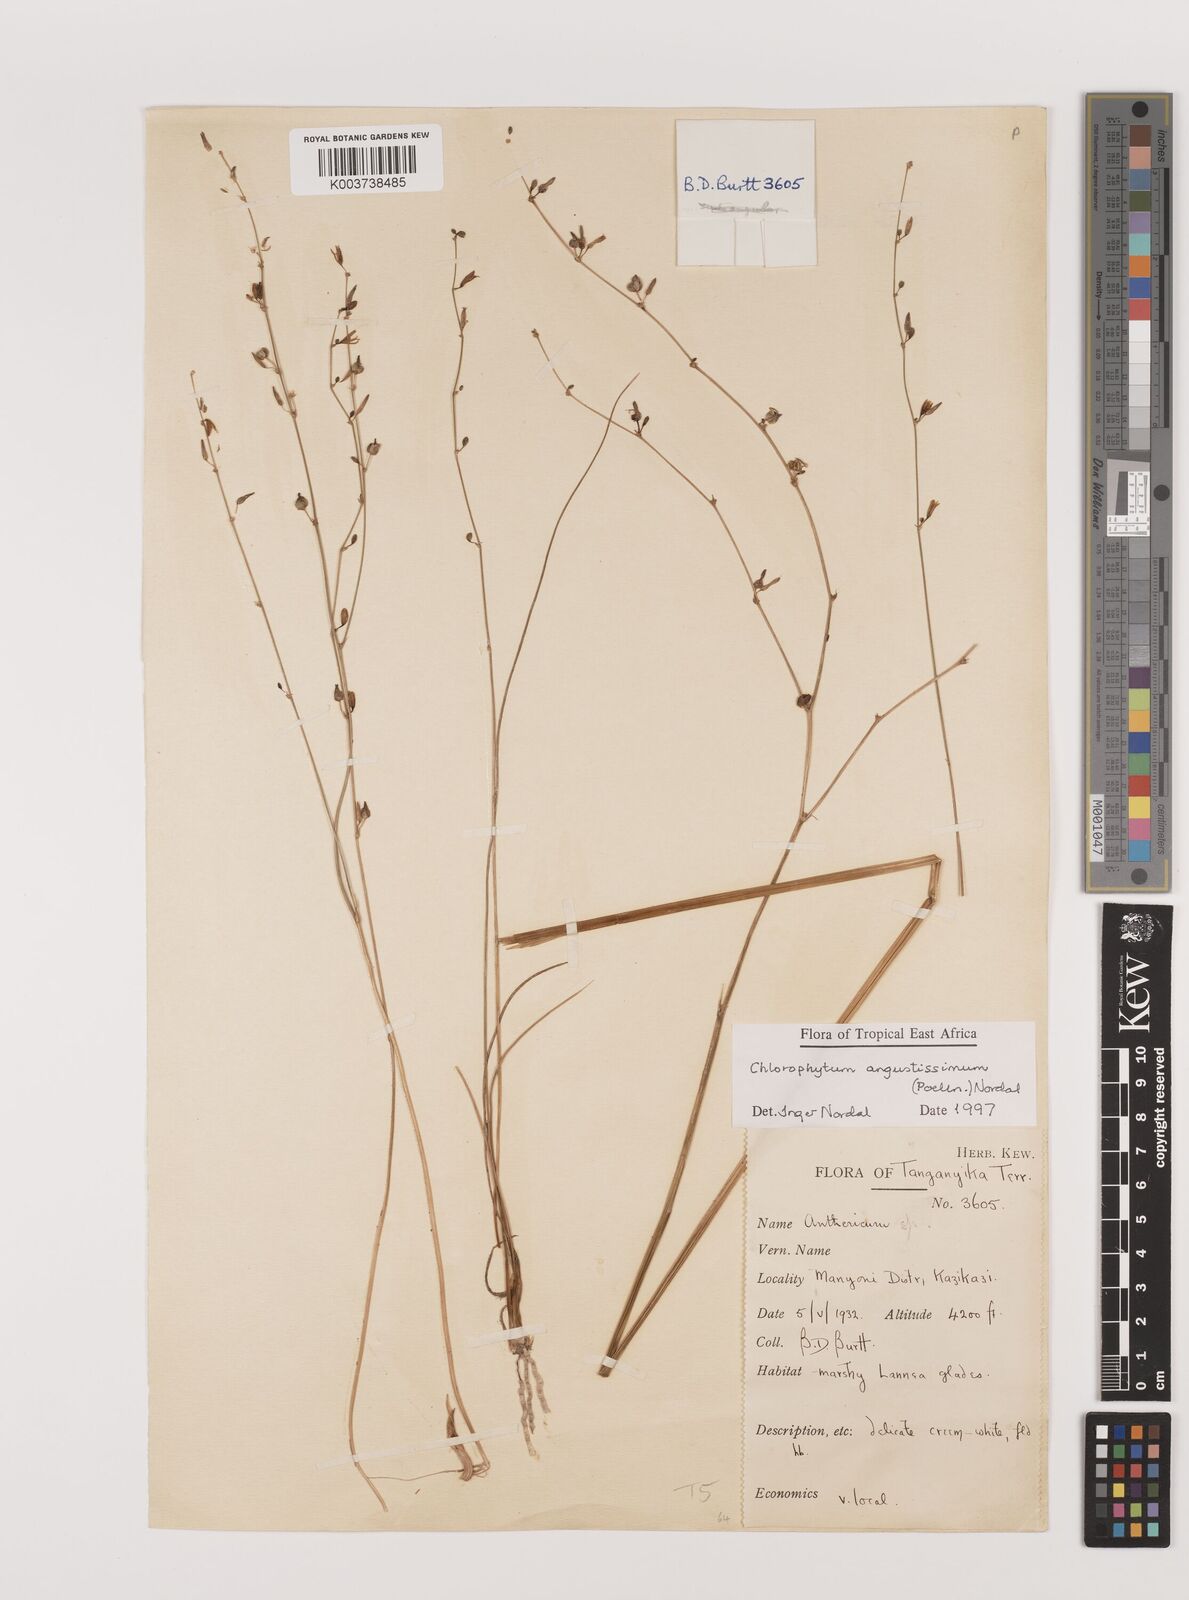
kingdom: Plantae
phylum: Tracheophyta
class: Liliopsida
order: Asparagales
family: Asparagaceae
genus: Chlorophytum
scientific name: Chlorophytum angustissimum
